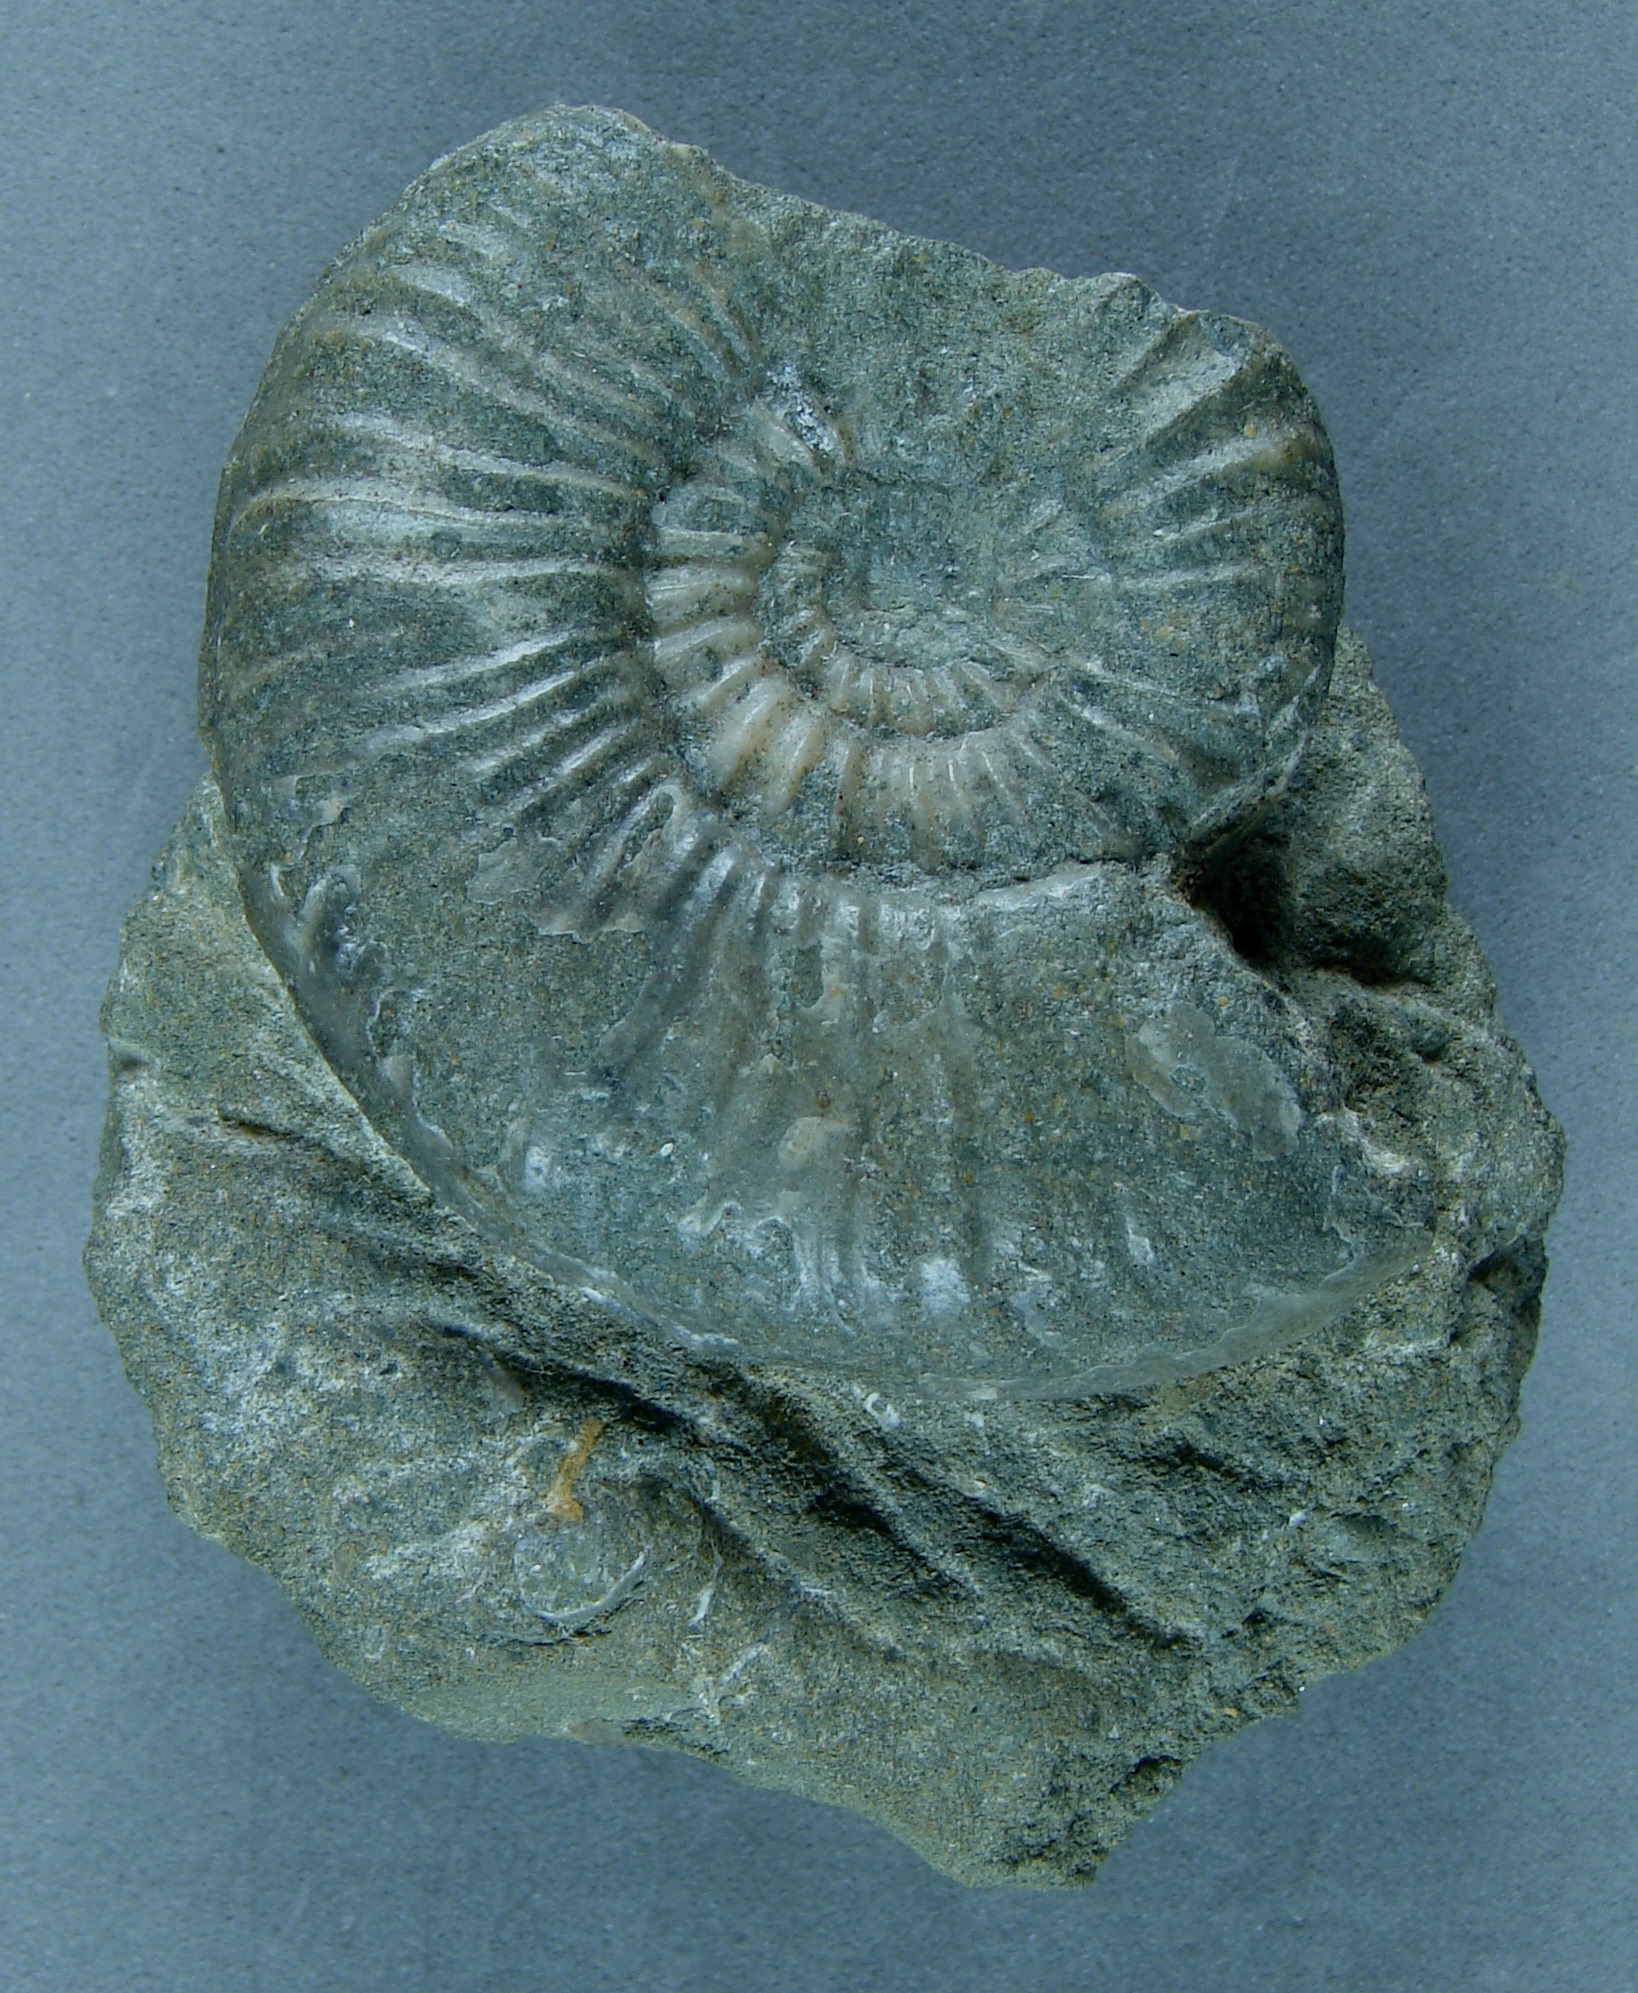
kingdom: Animalia
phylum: Mollusca
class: Cephalopoda
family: Hildoceratidae
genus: Dumortieria
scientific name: Dumortieria pseudoradiosa
